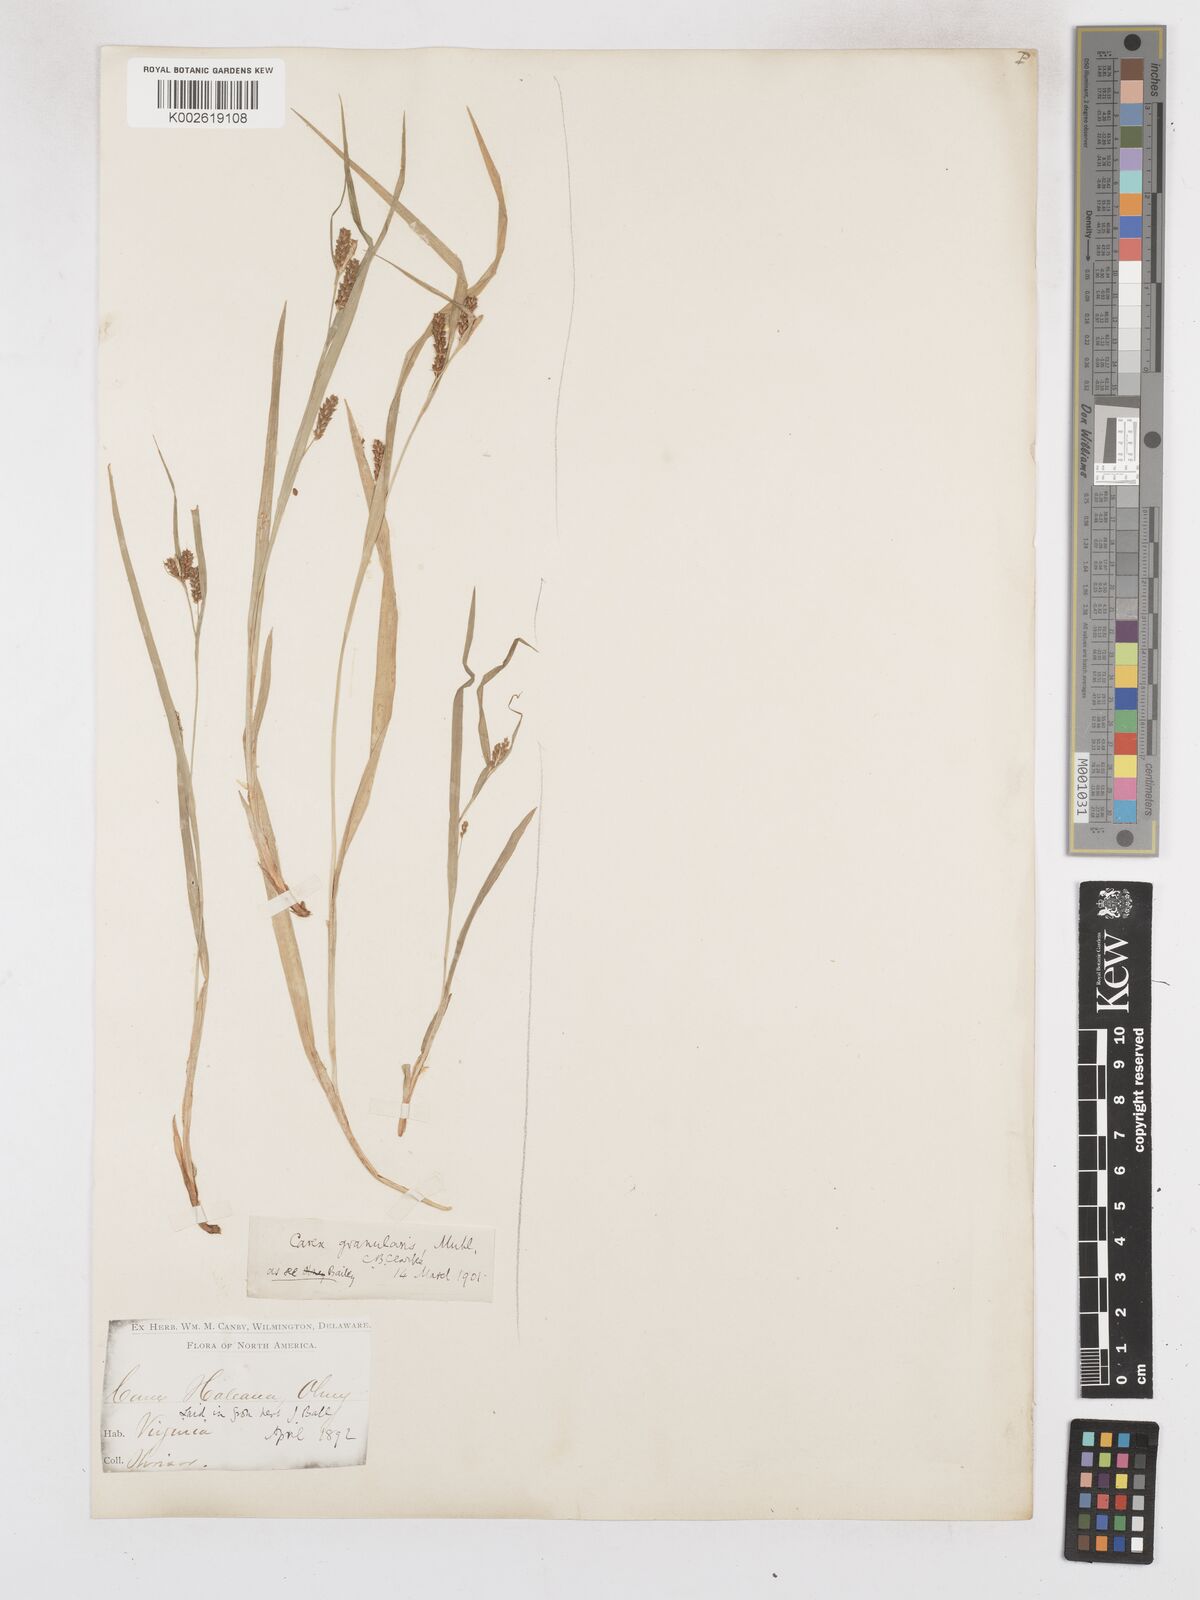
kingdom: Plantae
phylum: Tracheophyta
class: Liliopsida
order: Poales
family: Cyperaceae
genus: Carex
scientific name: Carex granularis
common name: Granular sedge
